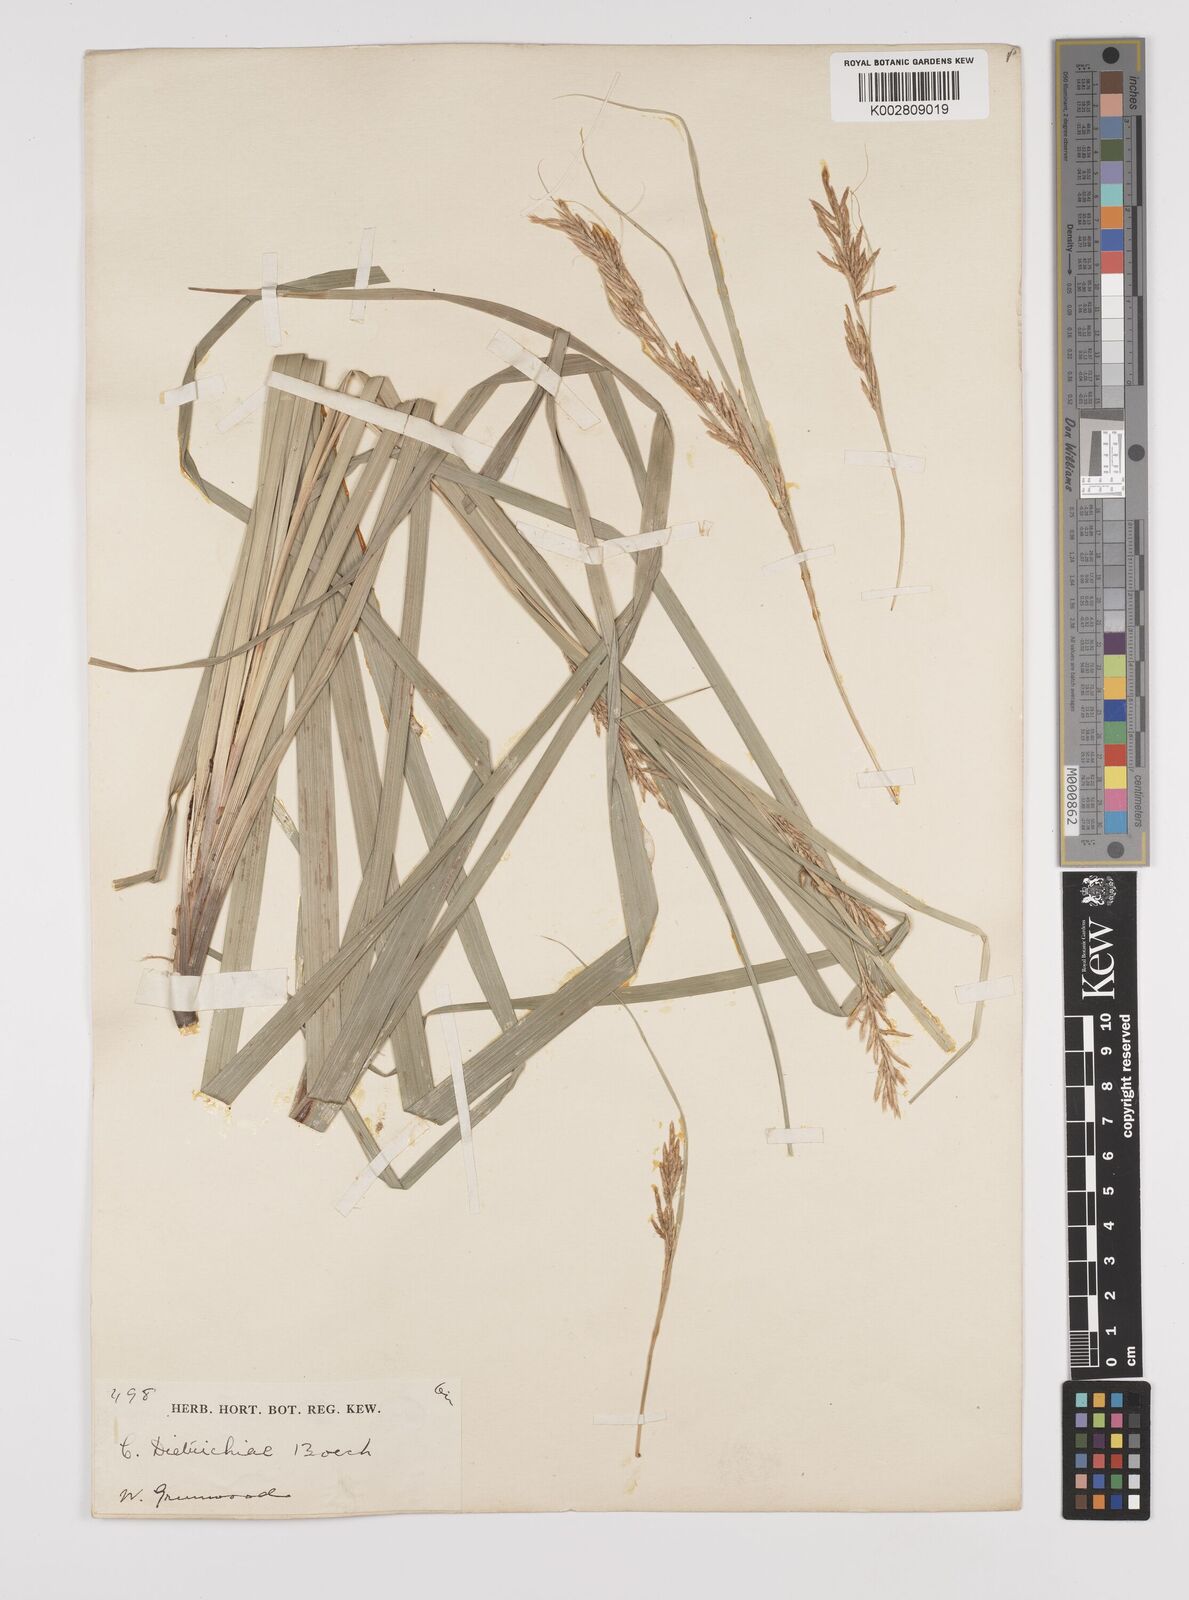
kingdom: Plantae
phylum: Tracheophyta
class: Liliopsida
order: Poales
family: Cyperaceae
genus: Carex
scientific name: Carex indica
